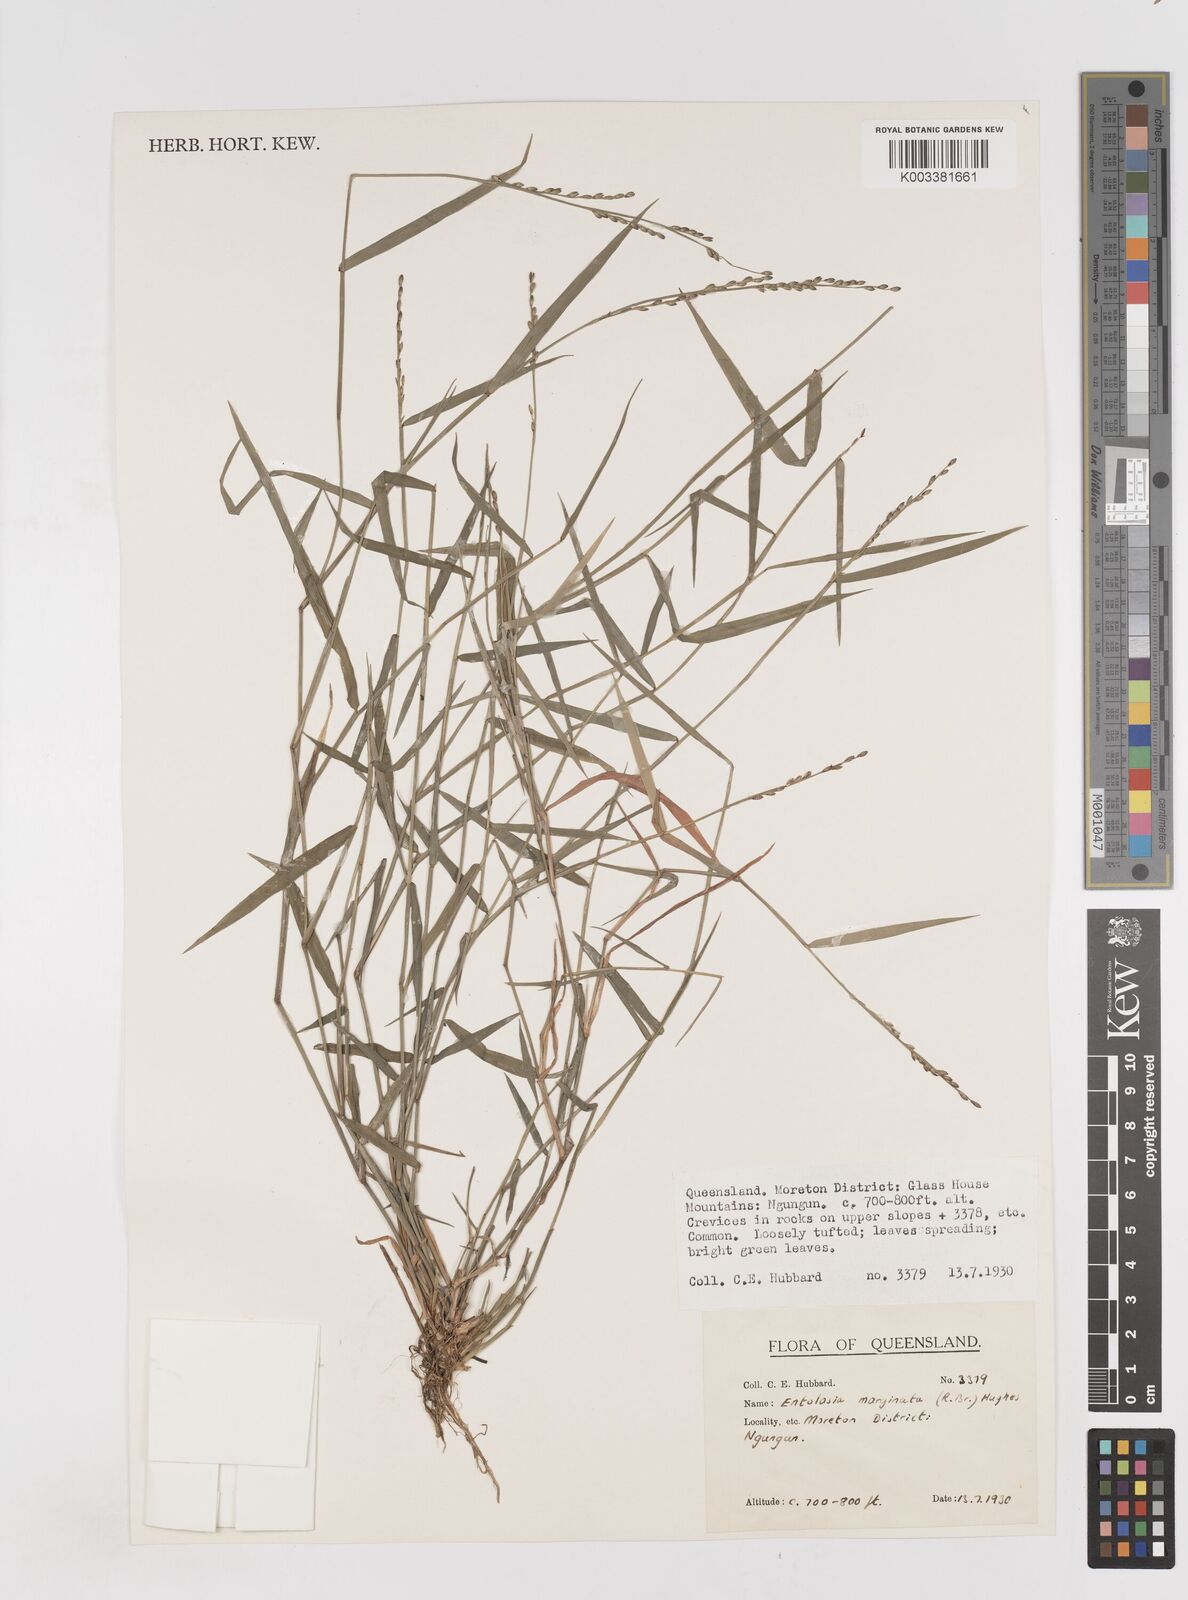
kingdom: Plantae
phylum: Tracheophyta
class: Liliopsida
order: Poales
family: Poaceae
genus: Entolasia
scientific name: Entolasia marginata
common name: Australian panicgrass
